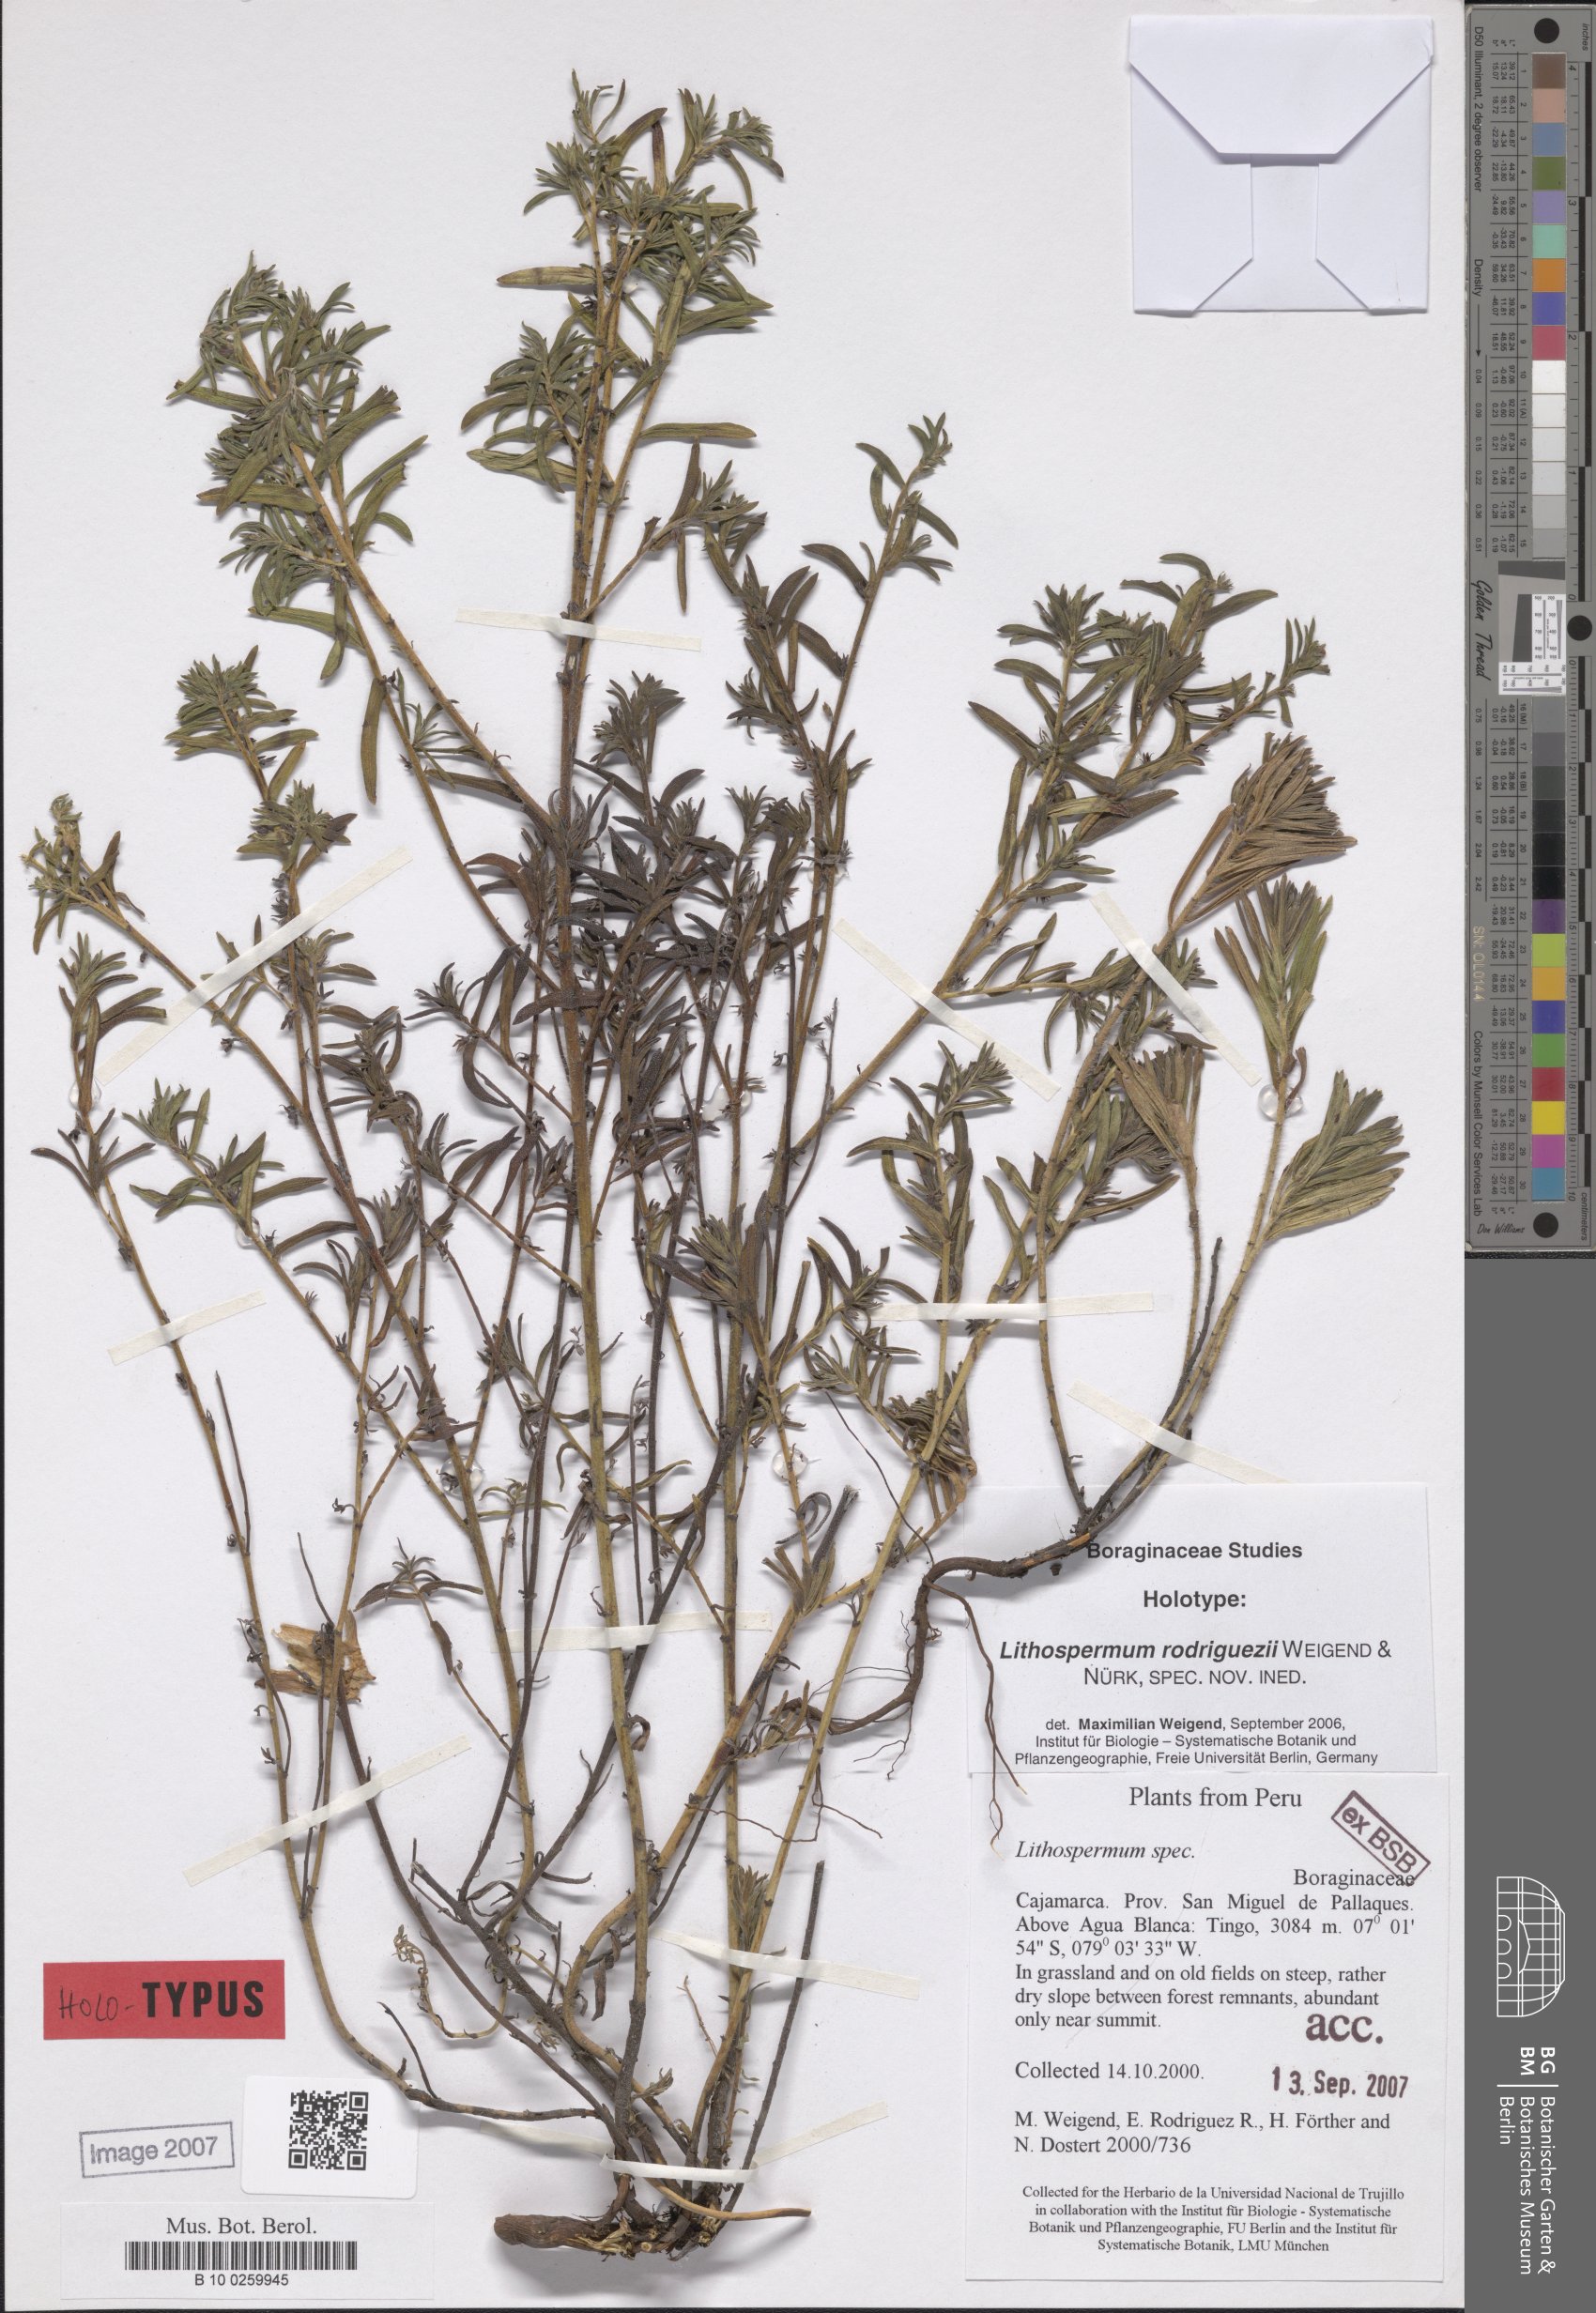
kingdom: Plantae
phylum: Tracheophyta
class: Magnoliopsida
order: Boraginales
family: Boraginaceae
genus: Lithospermum
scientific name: Lithospermum rodriguezii
